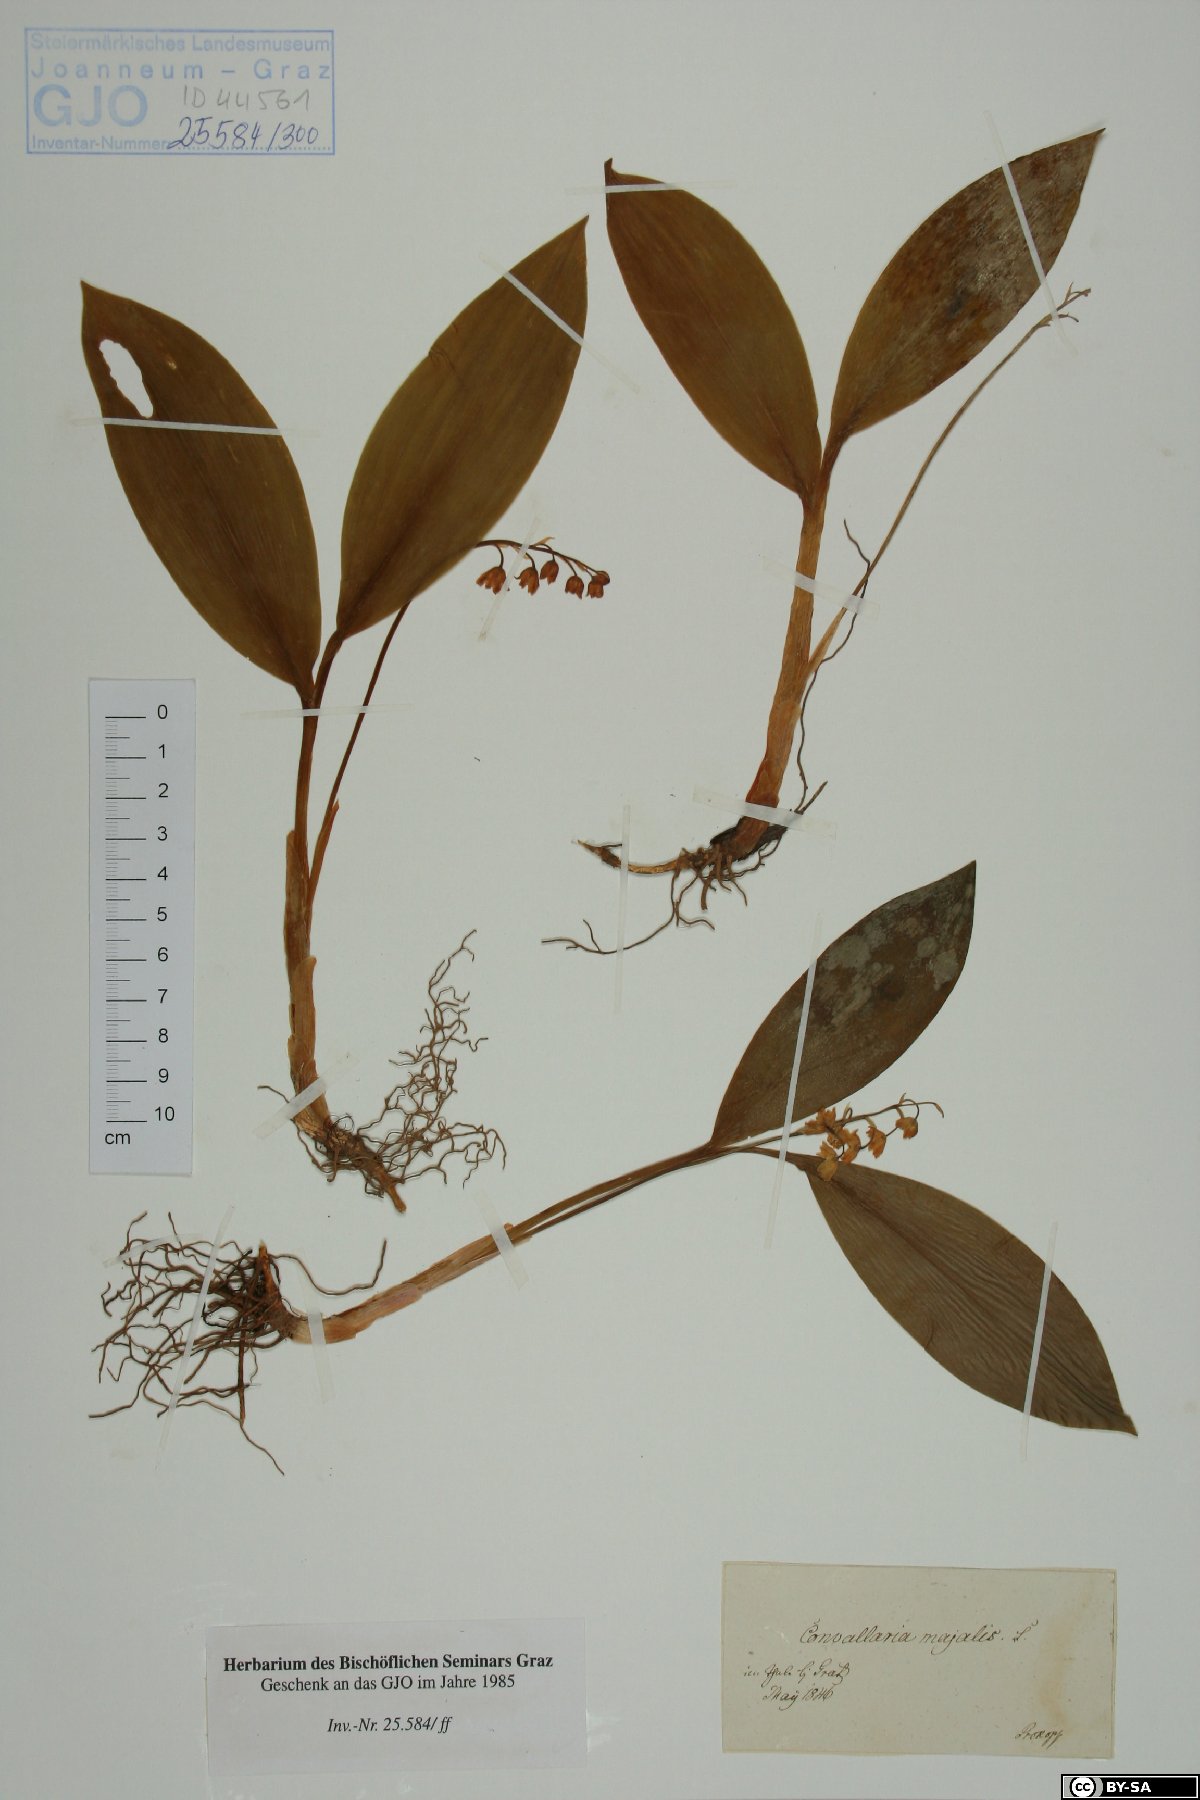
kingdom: Plantae
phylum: Tracheophyta
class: Liliopsida
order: Asparagales
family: Asparagaceae
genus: Convallaria
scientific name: Convallaria majalis
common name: Lily-of-the-valley
